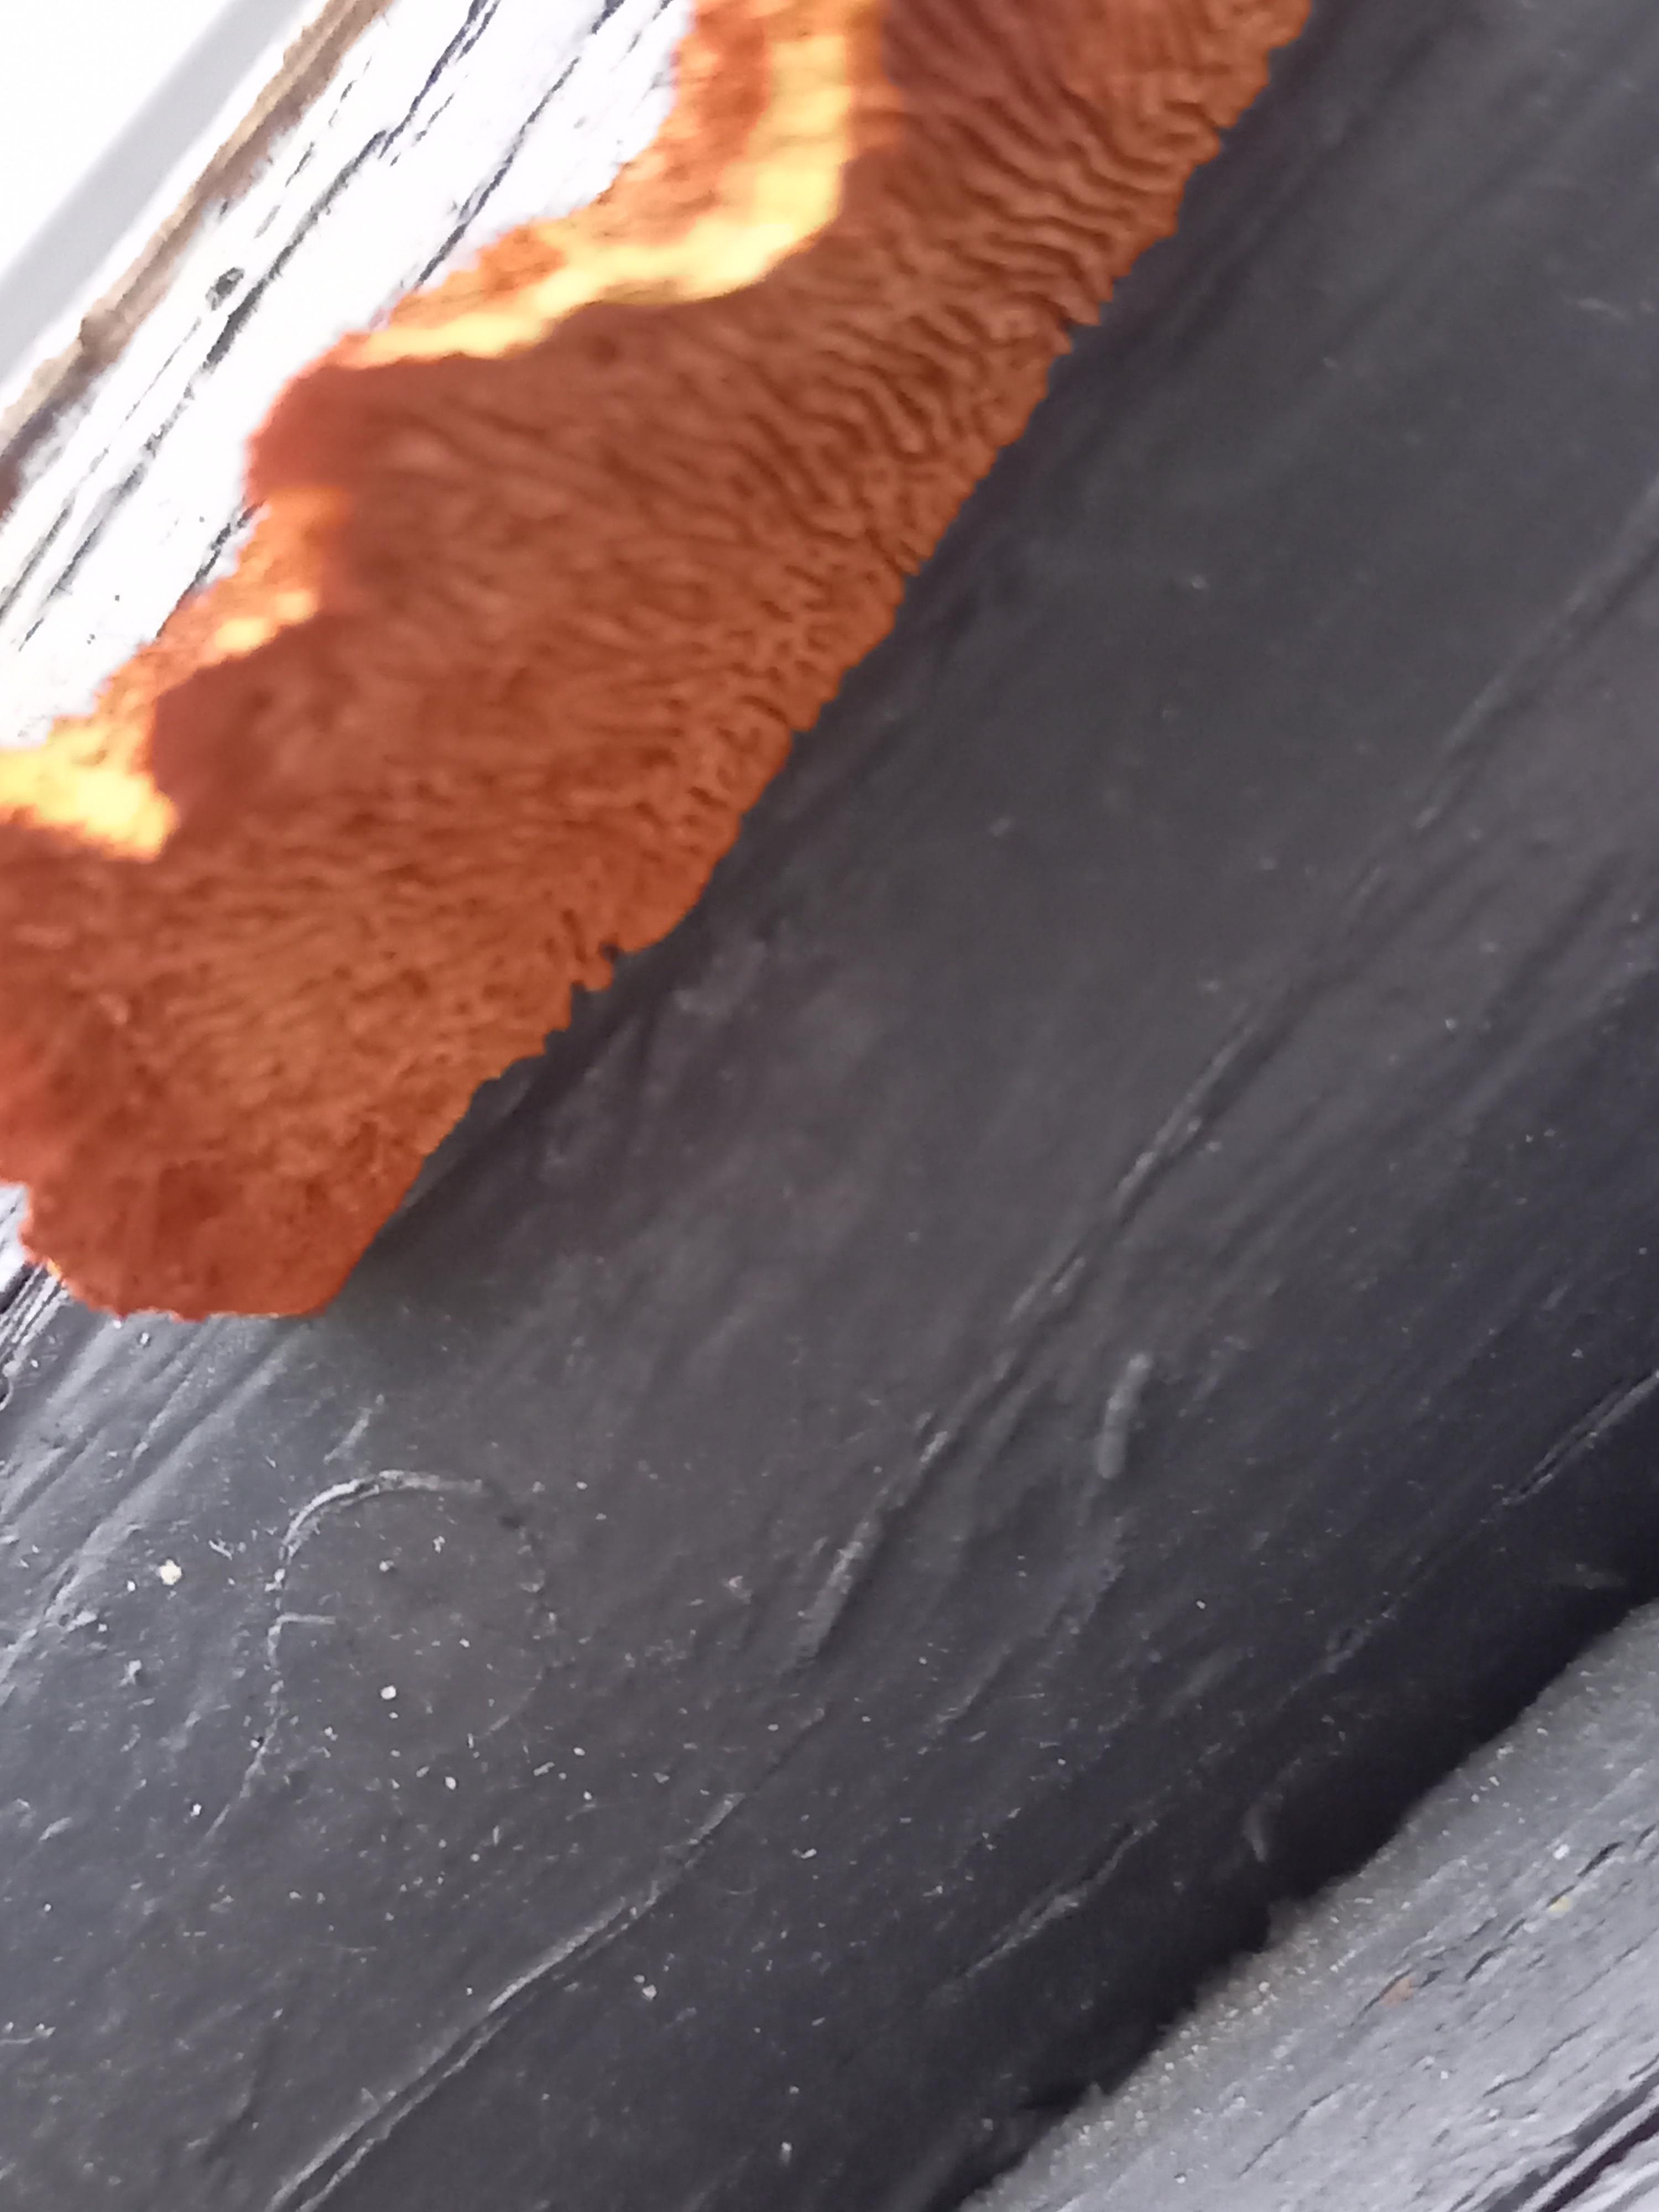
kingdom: Fungi
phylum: Basidiomycota
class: Agaricomycetes
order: Gloeophyllales
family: Gloeophyllaceae
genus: Gloeophyllum
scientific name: Gloeophyllum sepiarium
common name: fyrre-korkhat
